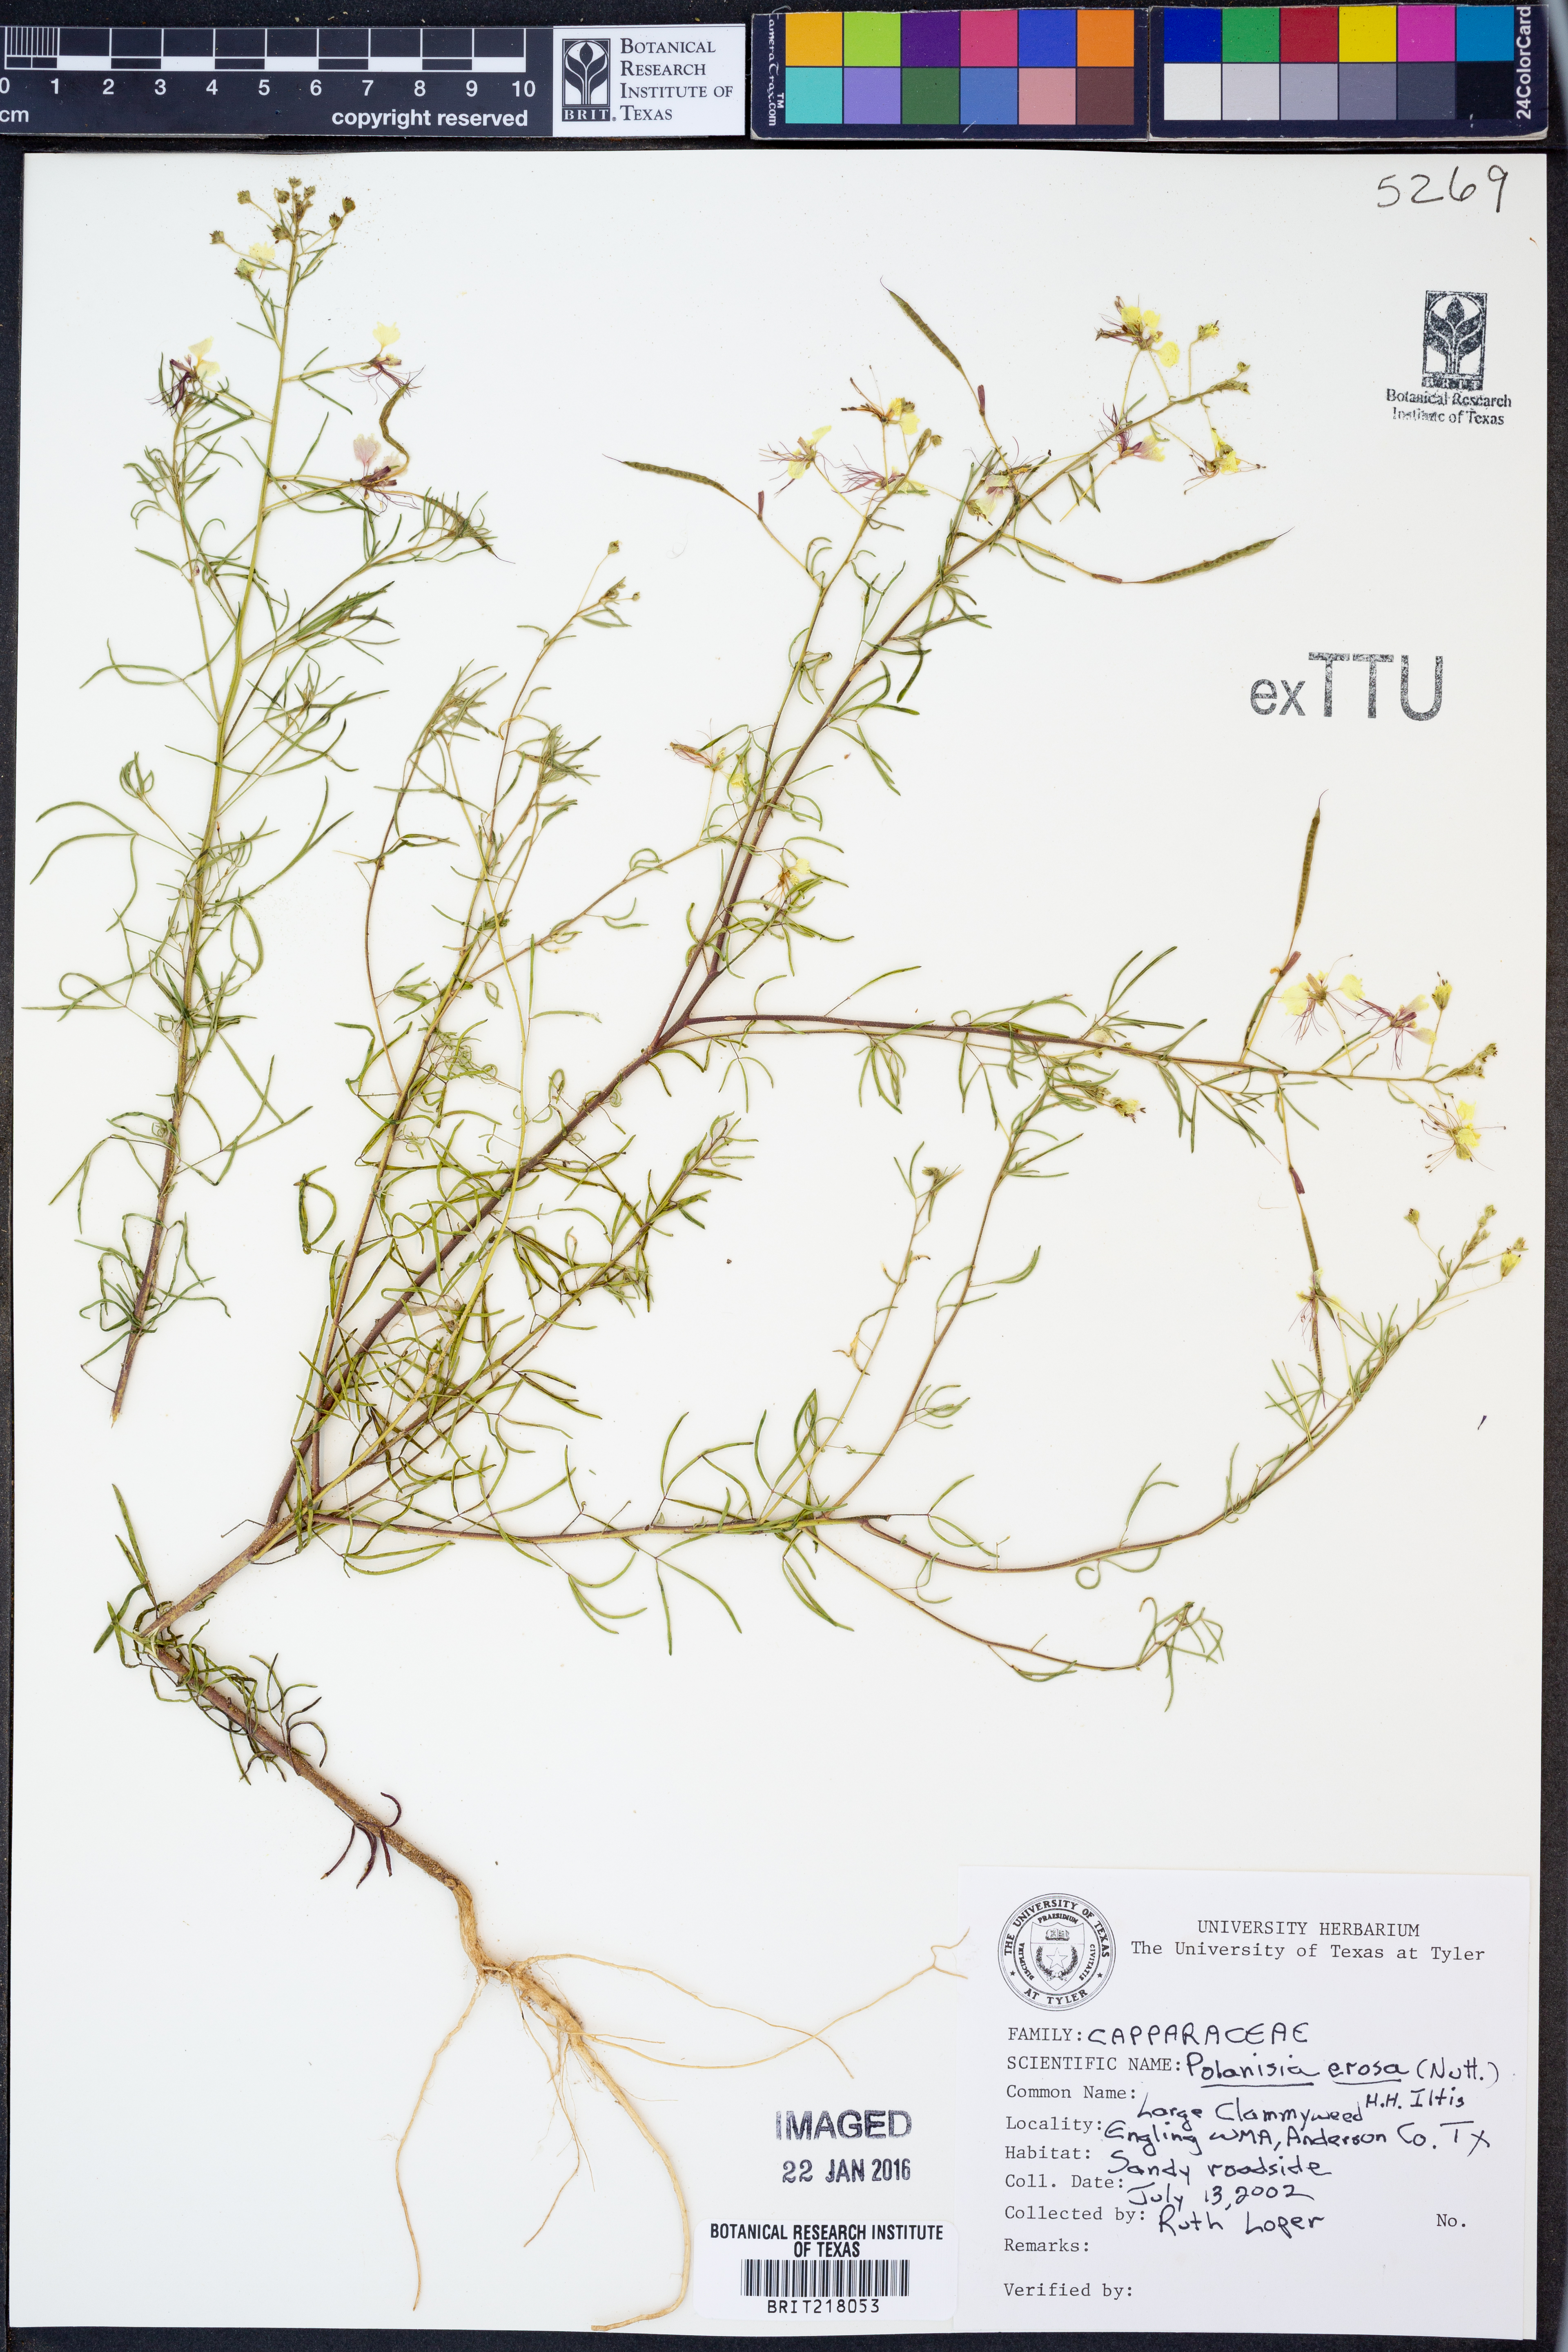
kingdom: Plantae
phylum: Tracheophyta
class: Magnoliopsida
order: Brassicales
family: Cleomaceae
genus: Polanisia
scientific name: Polanisia erosa
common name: Large clammyweed
